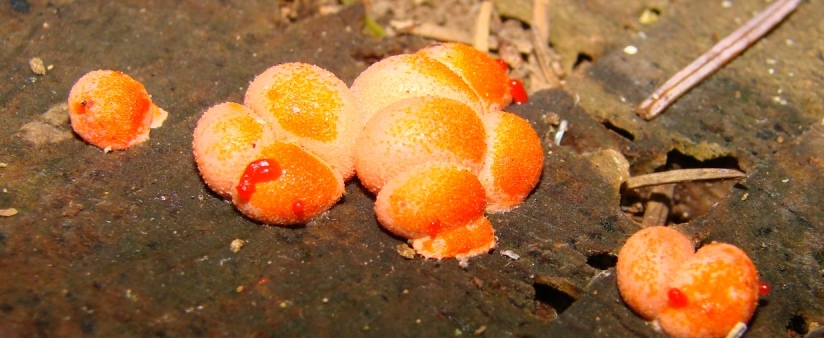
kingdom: Protozoa
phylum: Mycetozoa
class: Myxomycetes
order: Cribrariales
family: Tubiferaceae
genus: Lycogala
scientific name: Lycogala epidendrum
